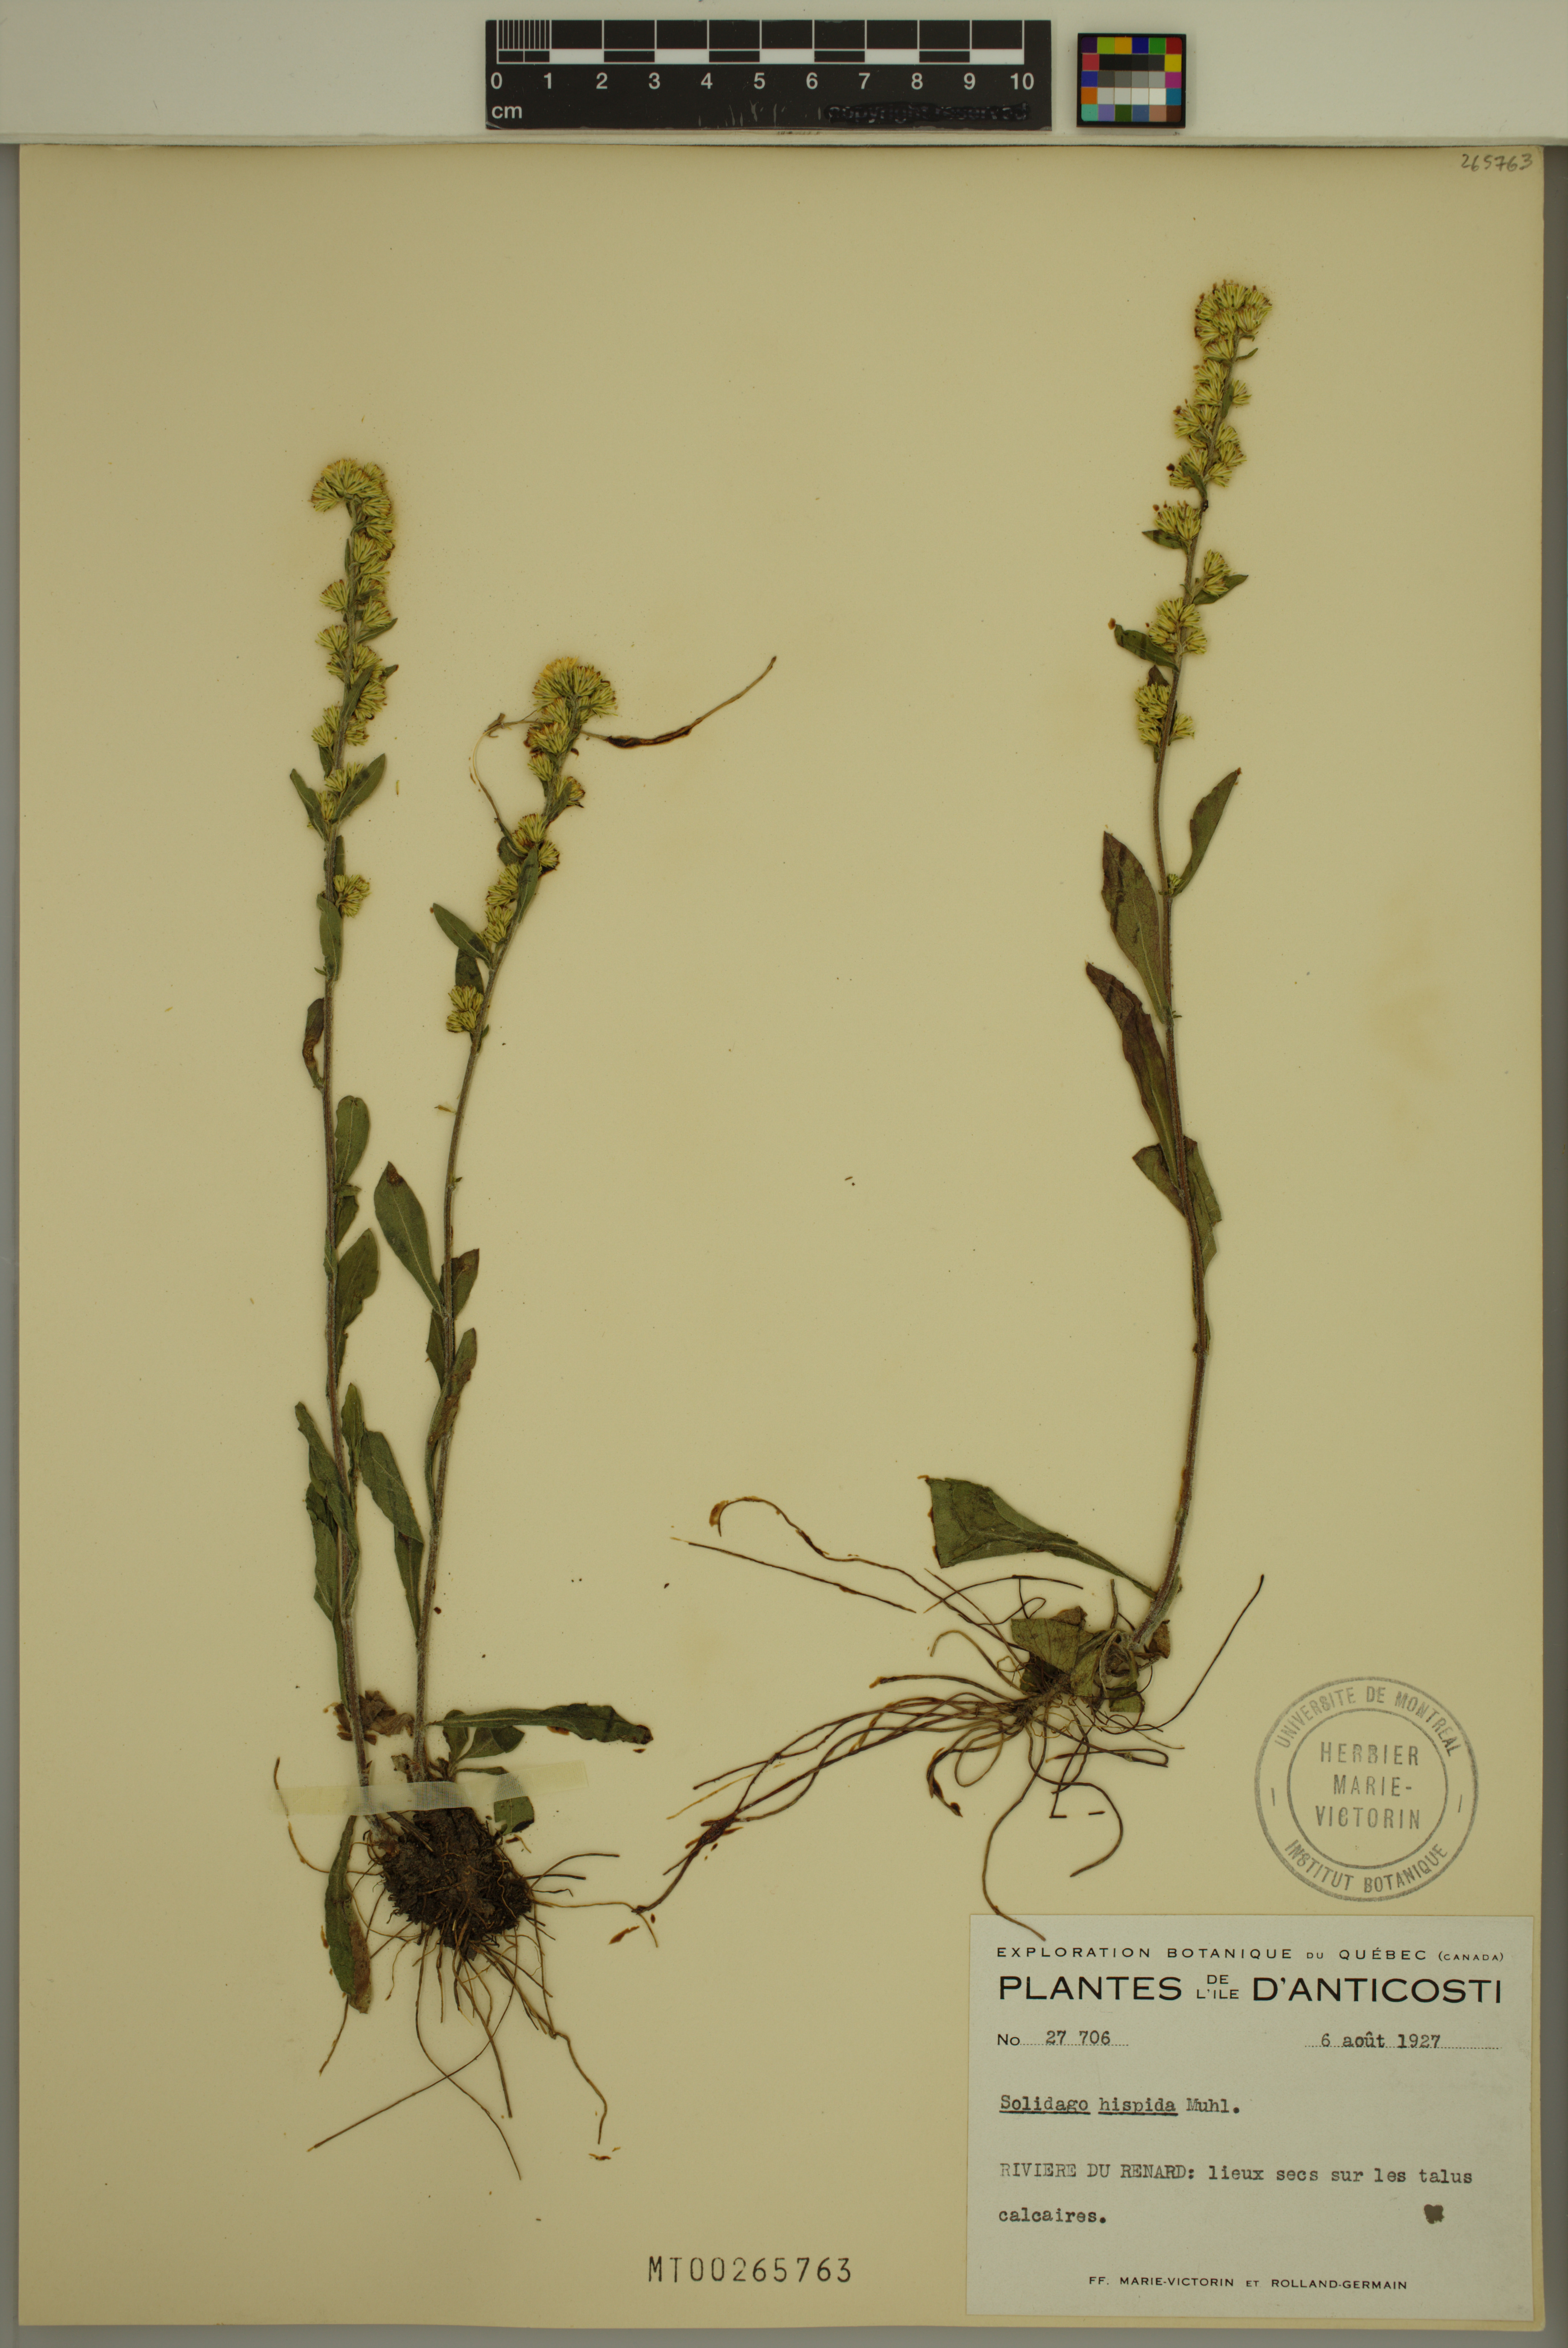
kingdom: Plantae
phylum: Tracheophyta
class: Magnoliopsida
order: Asterales
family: Asteraceae
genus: Solidago
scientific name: Solidago hispida
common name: Hairy goldenrod
